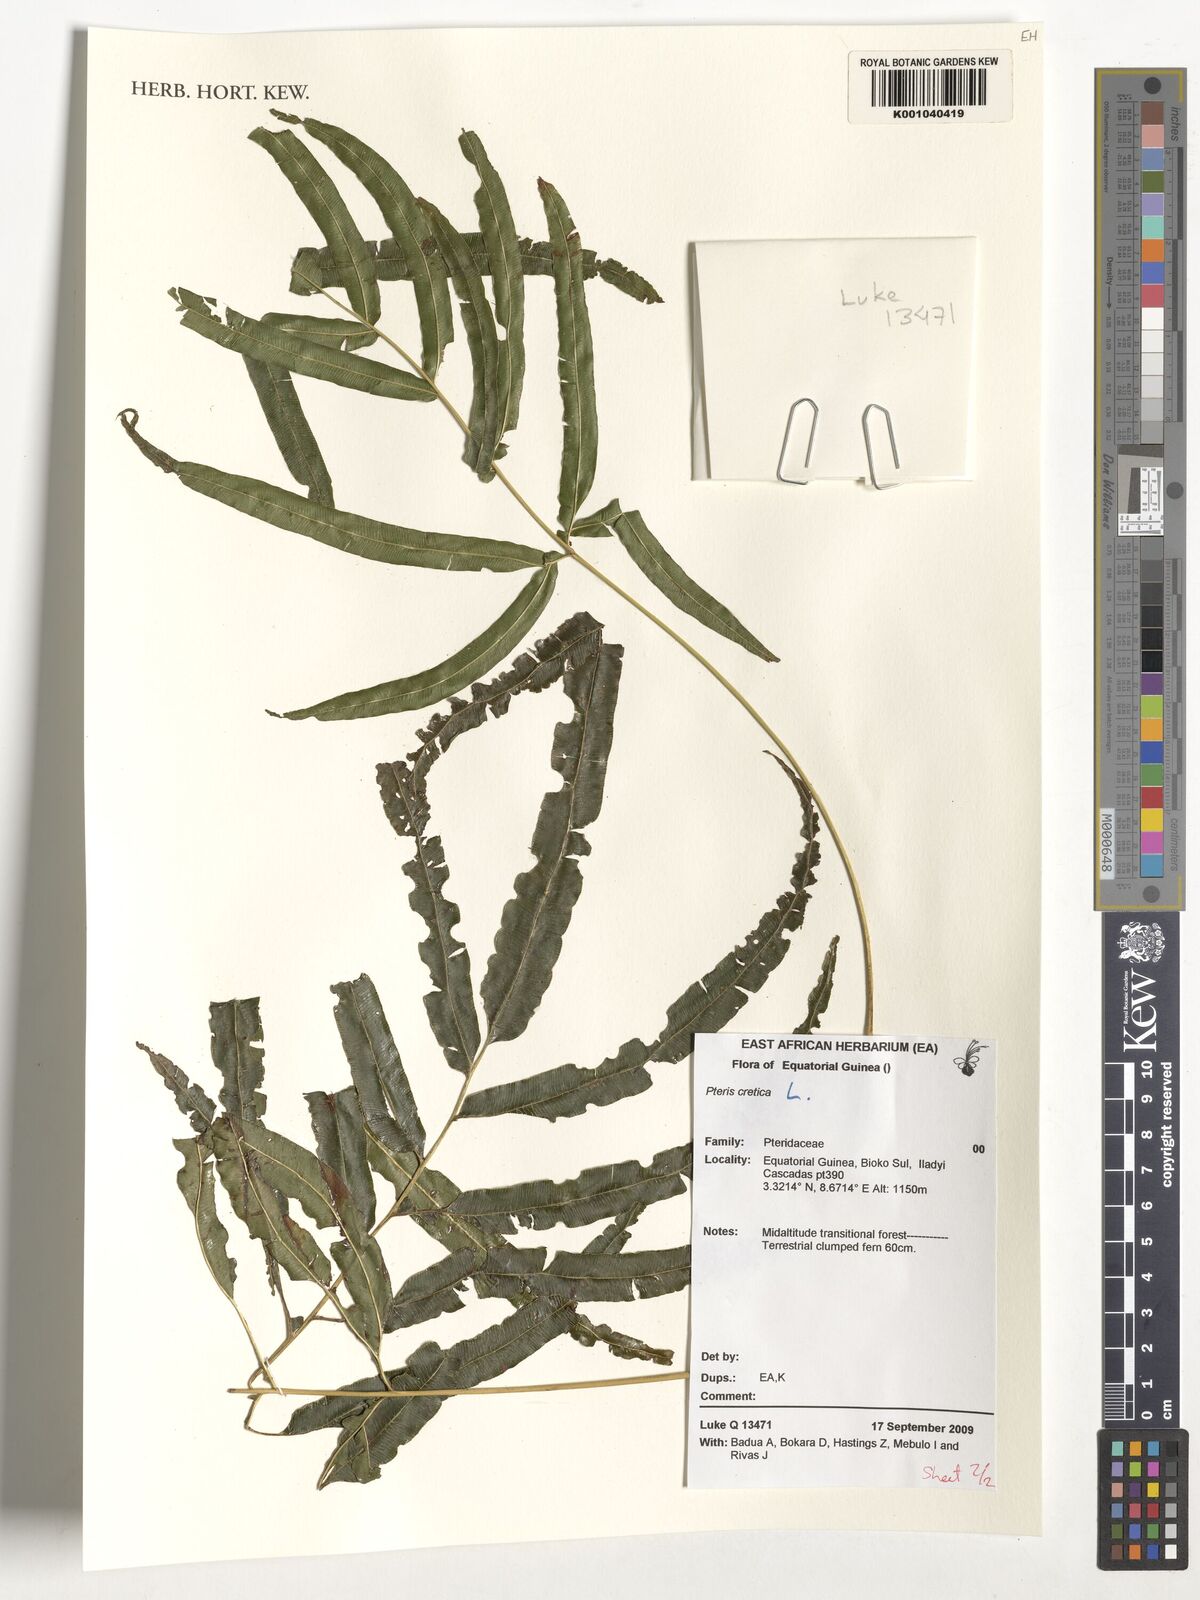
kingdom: Plantae
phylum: Tracheophyta
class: Polypodiopsida
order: Polypodiales
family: Pteridaceae
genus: Pteris
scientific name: Pteris cretica
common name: Ribbon fern
